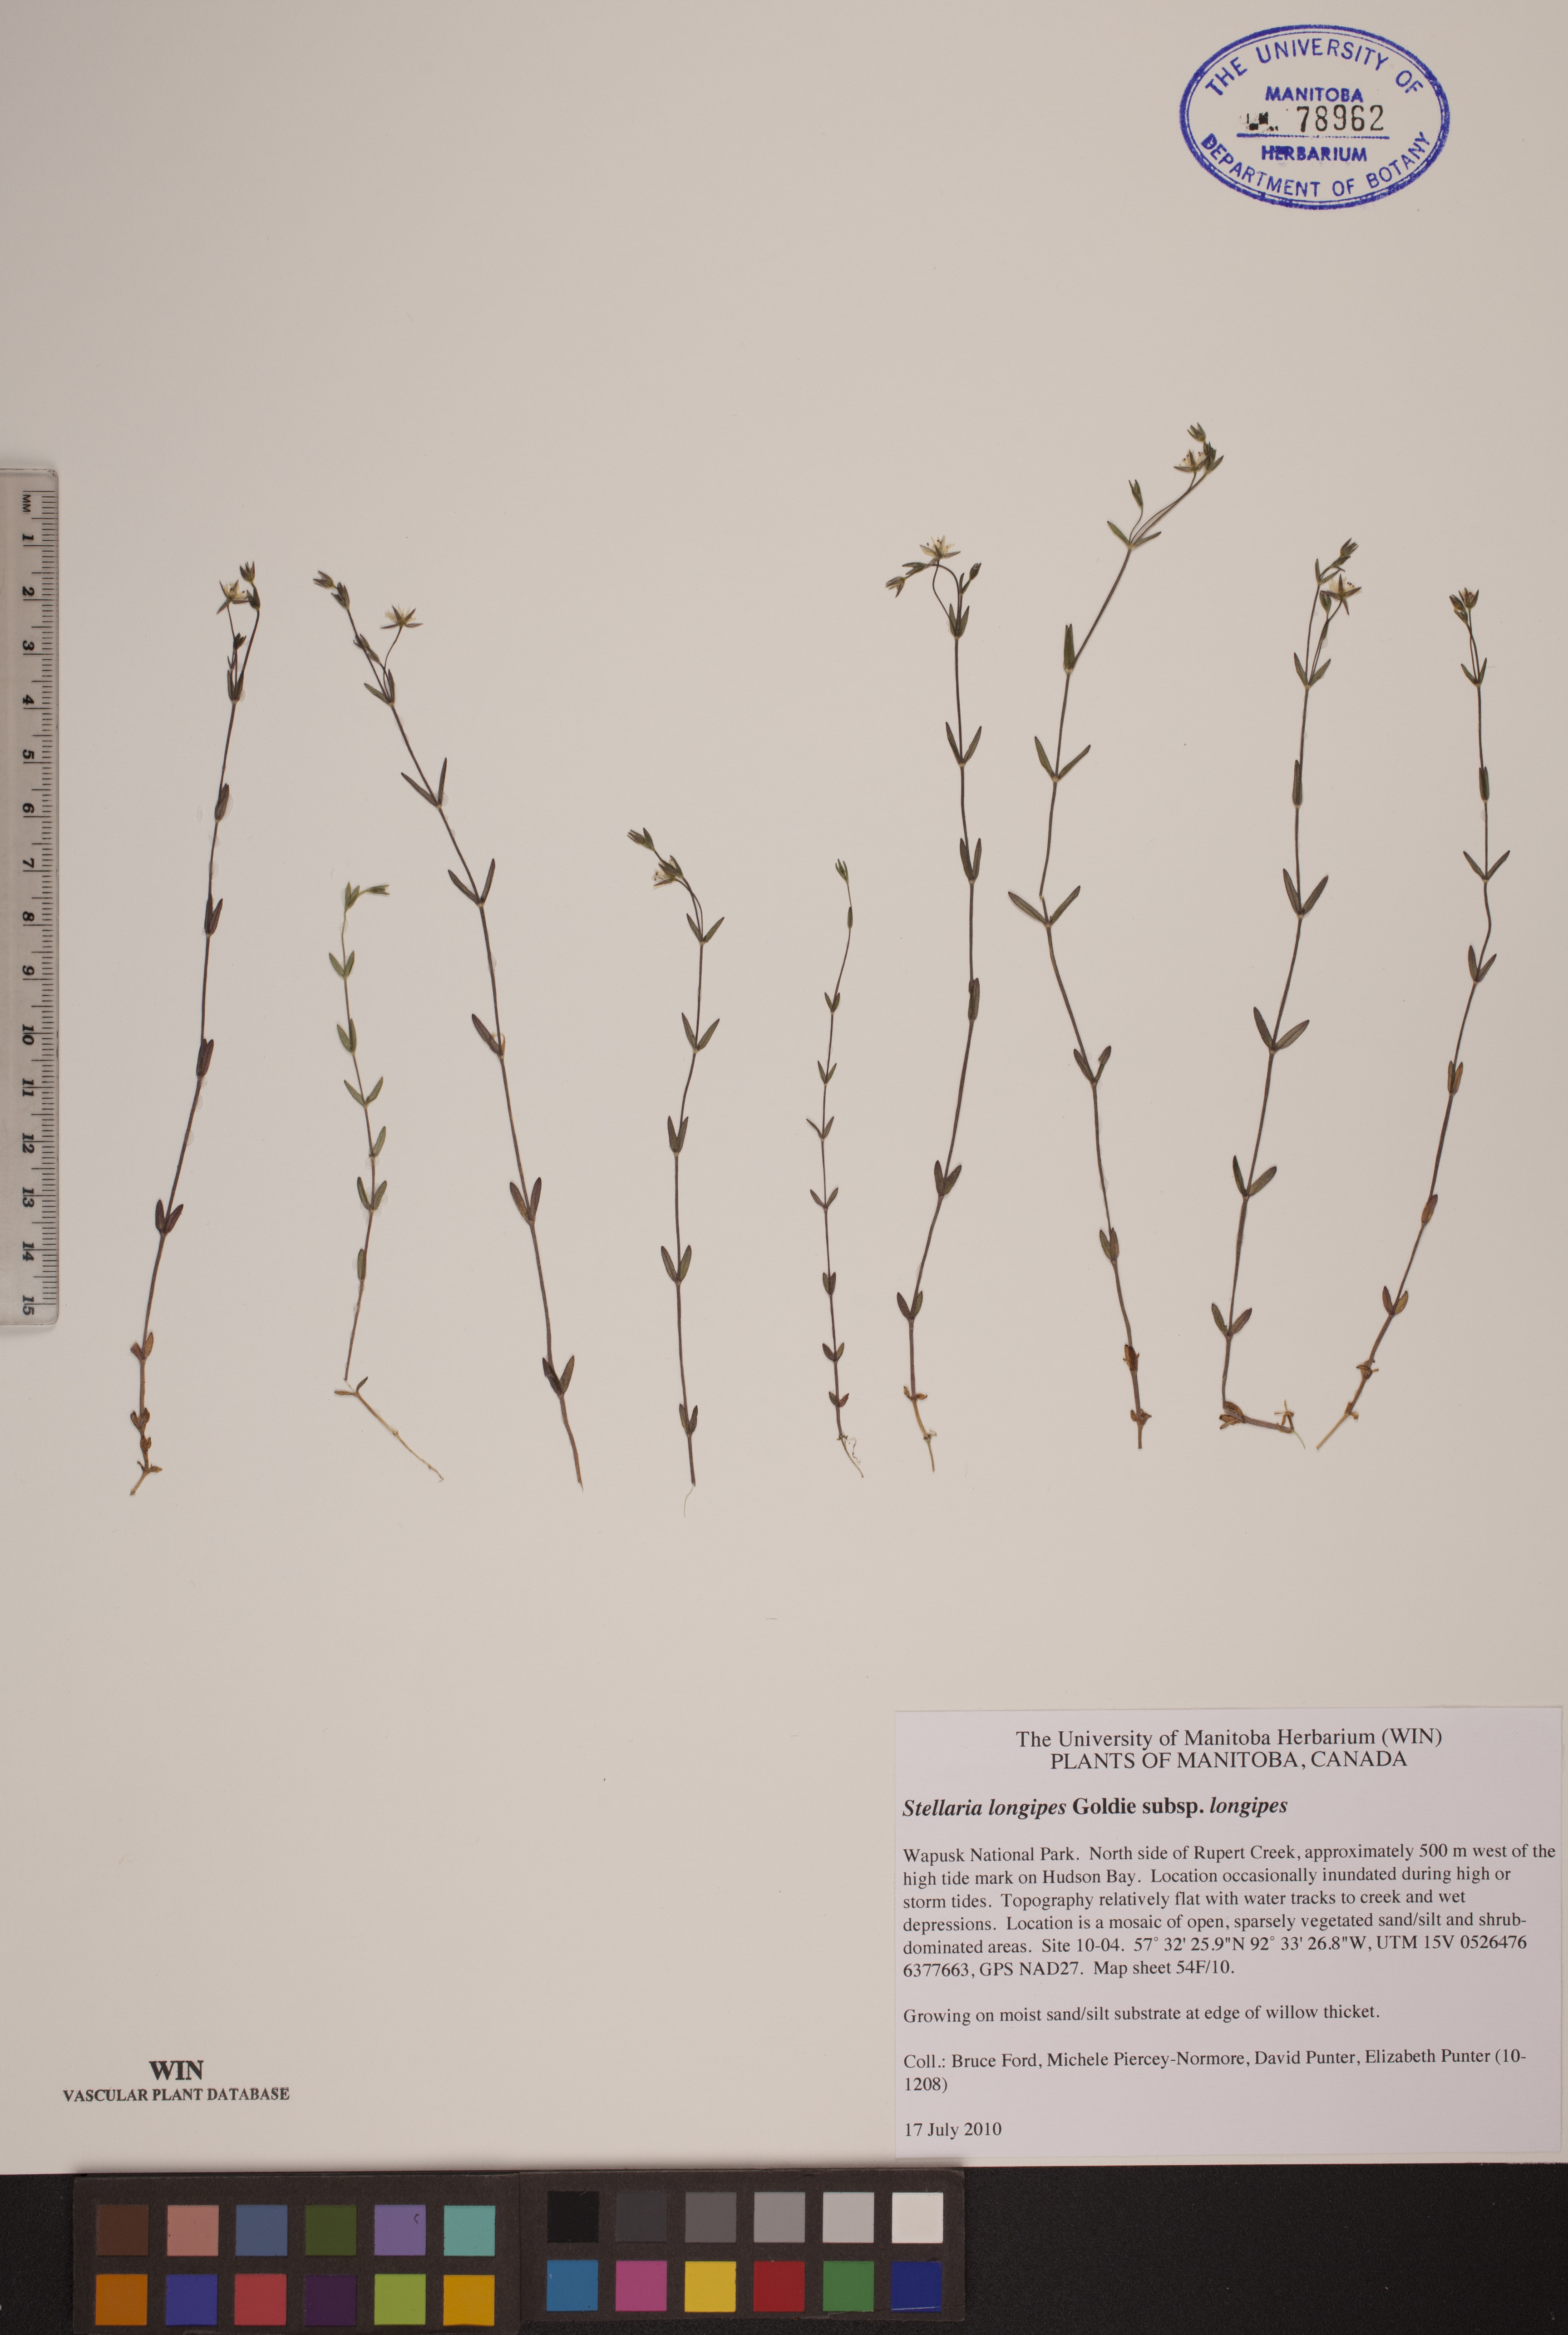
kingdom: Plantae
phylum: Tracheophyta
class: Magnoliopsida
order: Caryophyllales
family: Caryophyllaceae
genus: Stellaria
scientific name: Stellaria longipes
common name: Goldie's starwort
